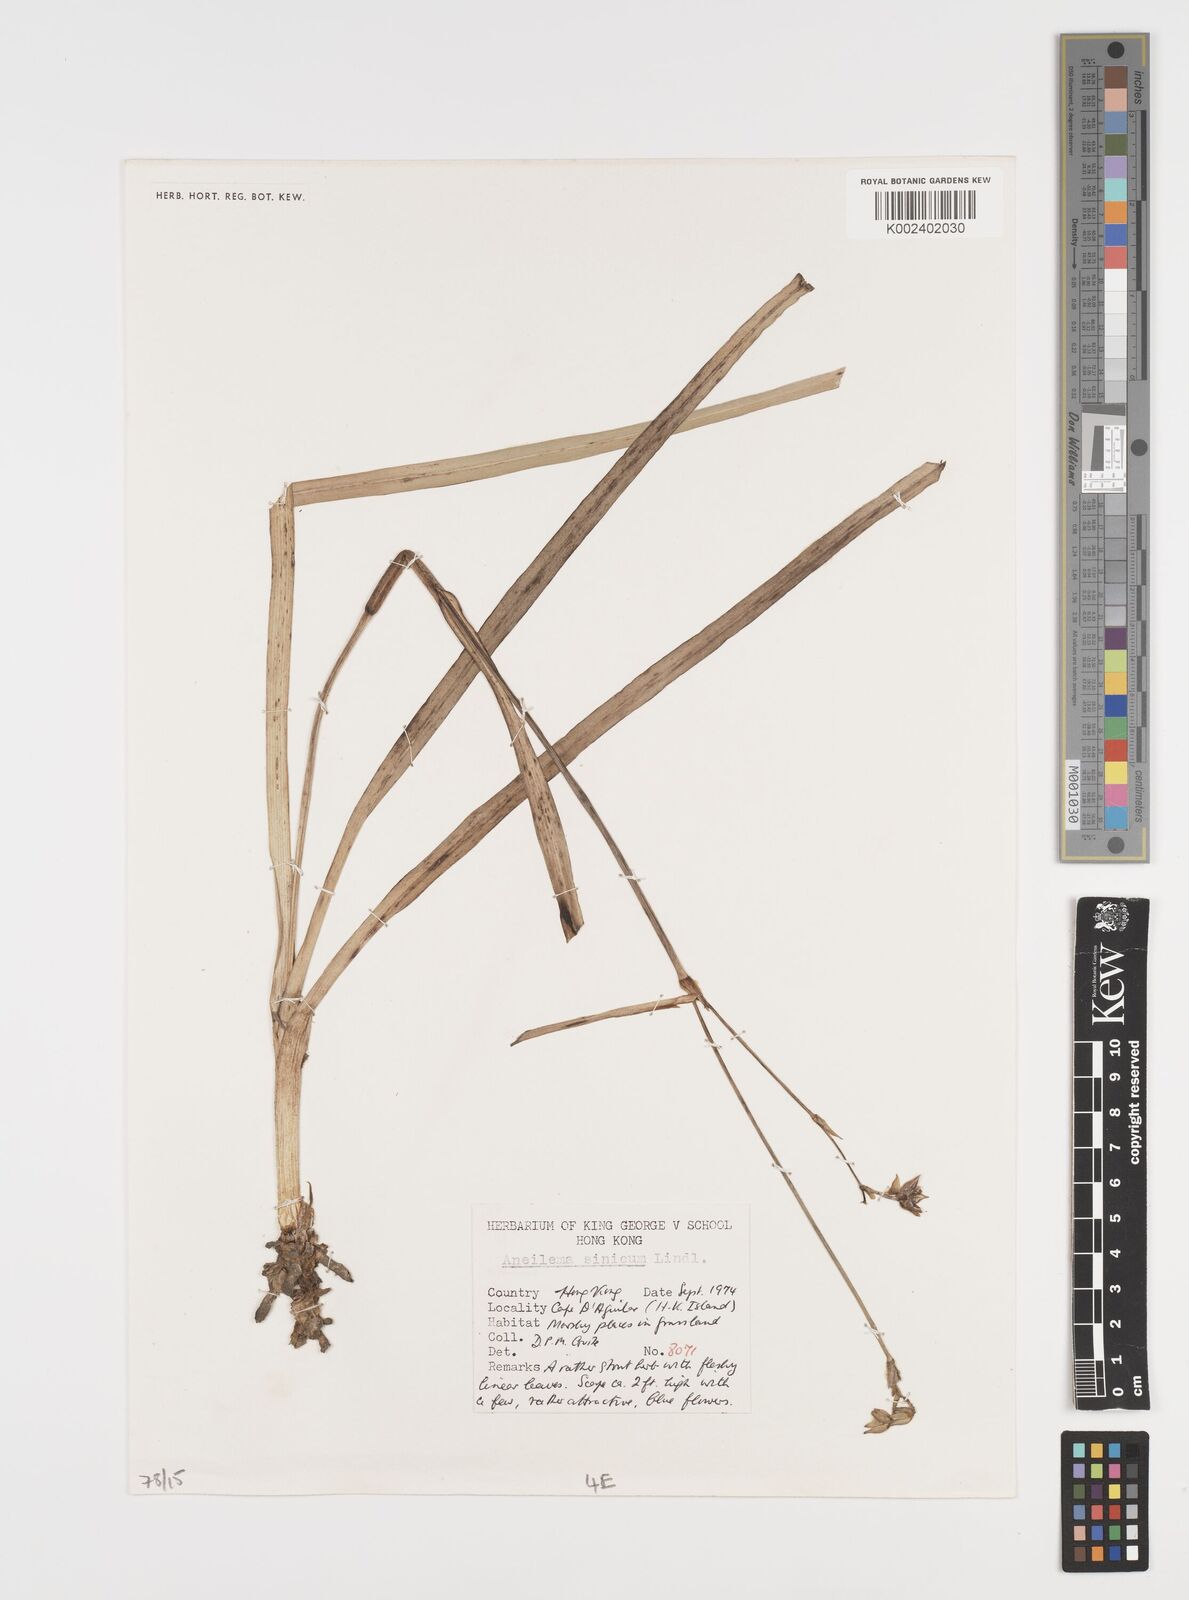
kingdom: Plantae
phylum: Tracheophyta
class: Liliopsida
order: Commelinales
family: Commelinaceae
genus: Aneilema
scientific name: Aneilema
